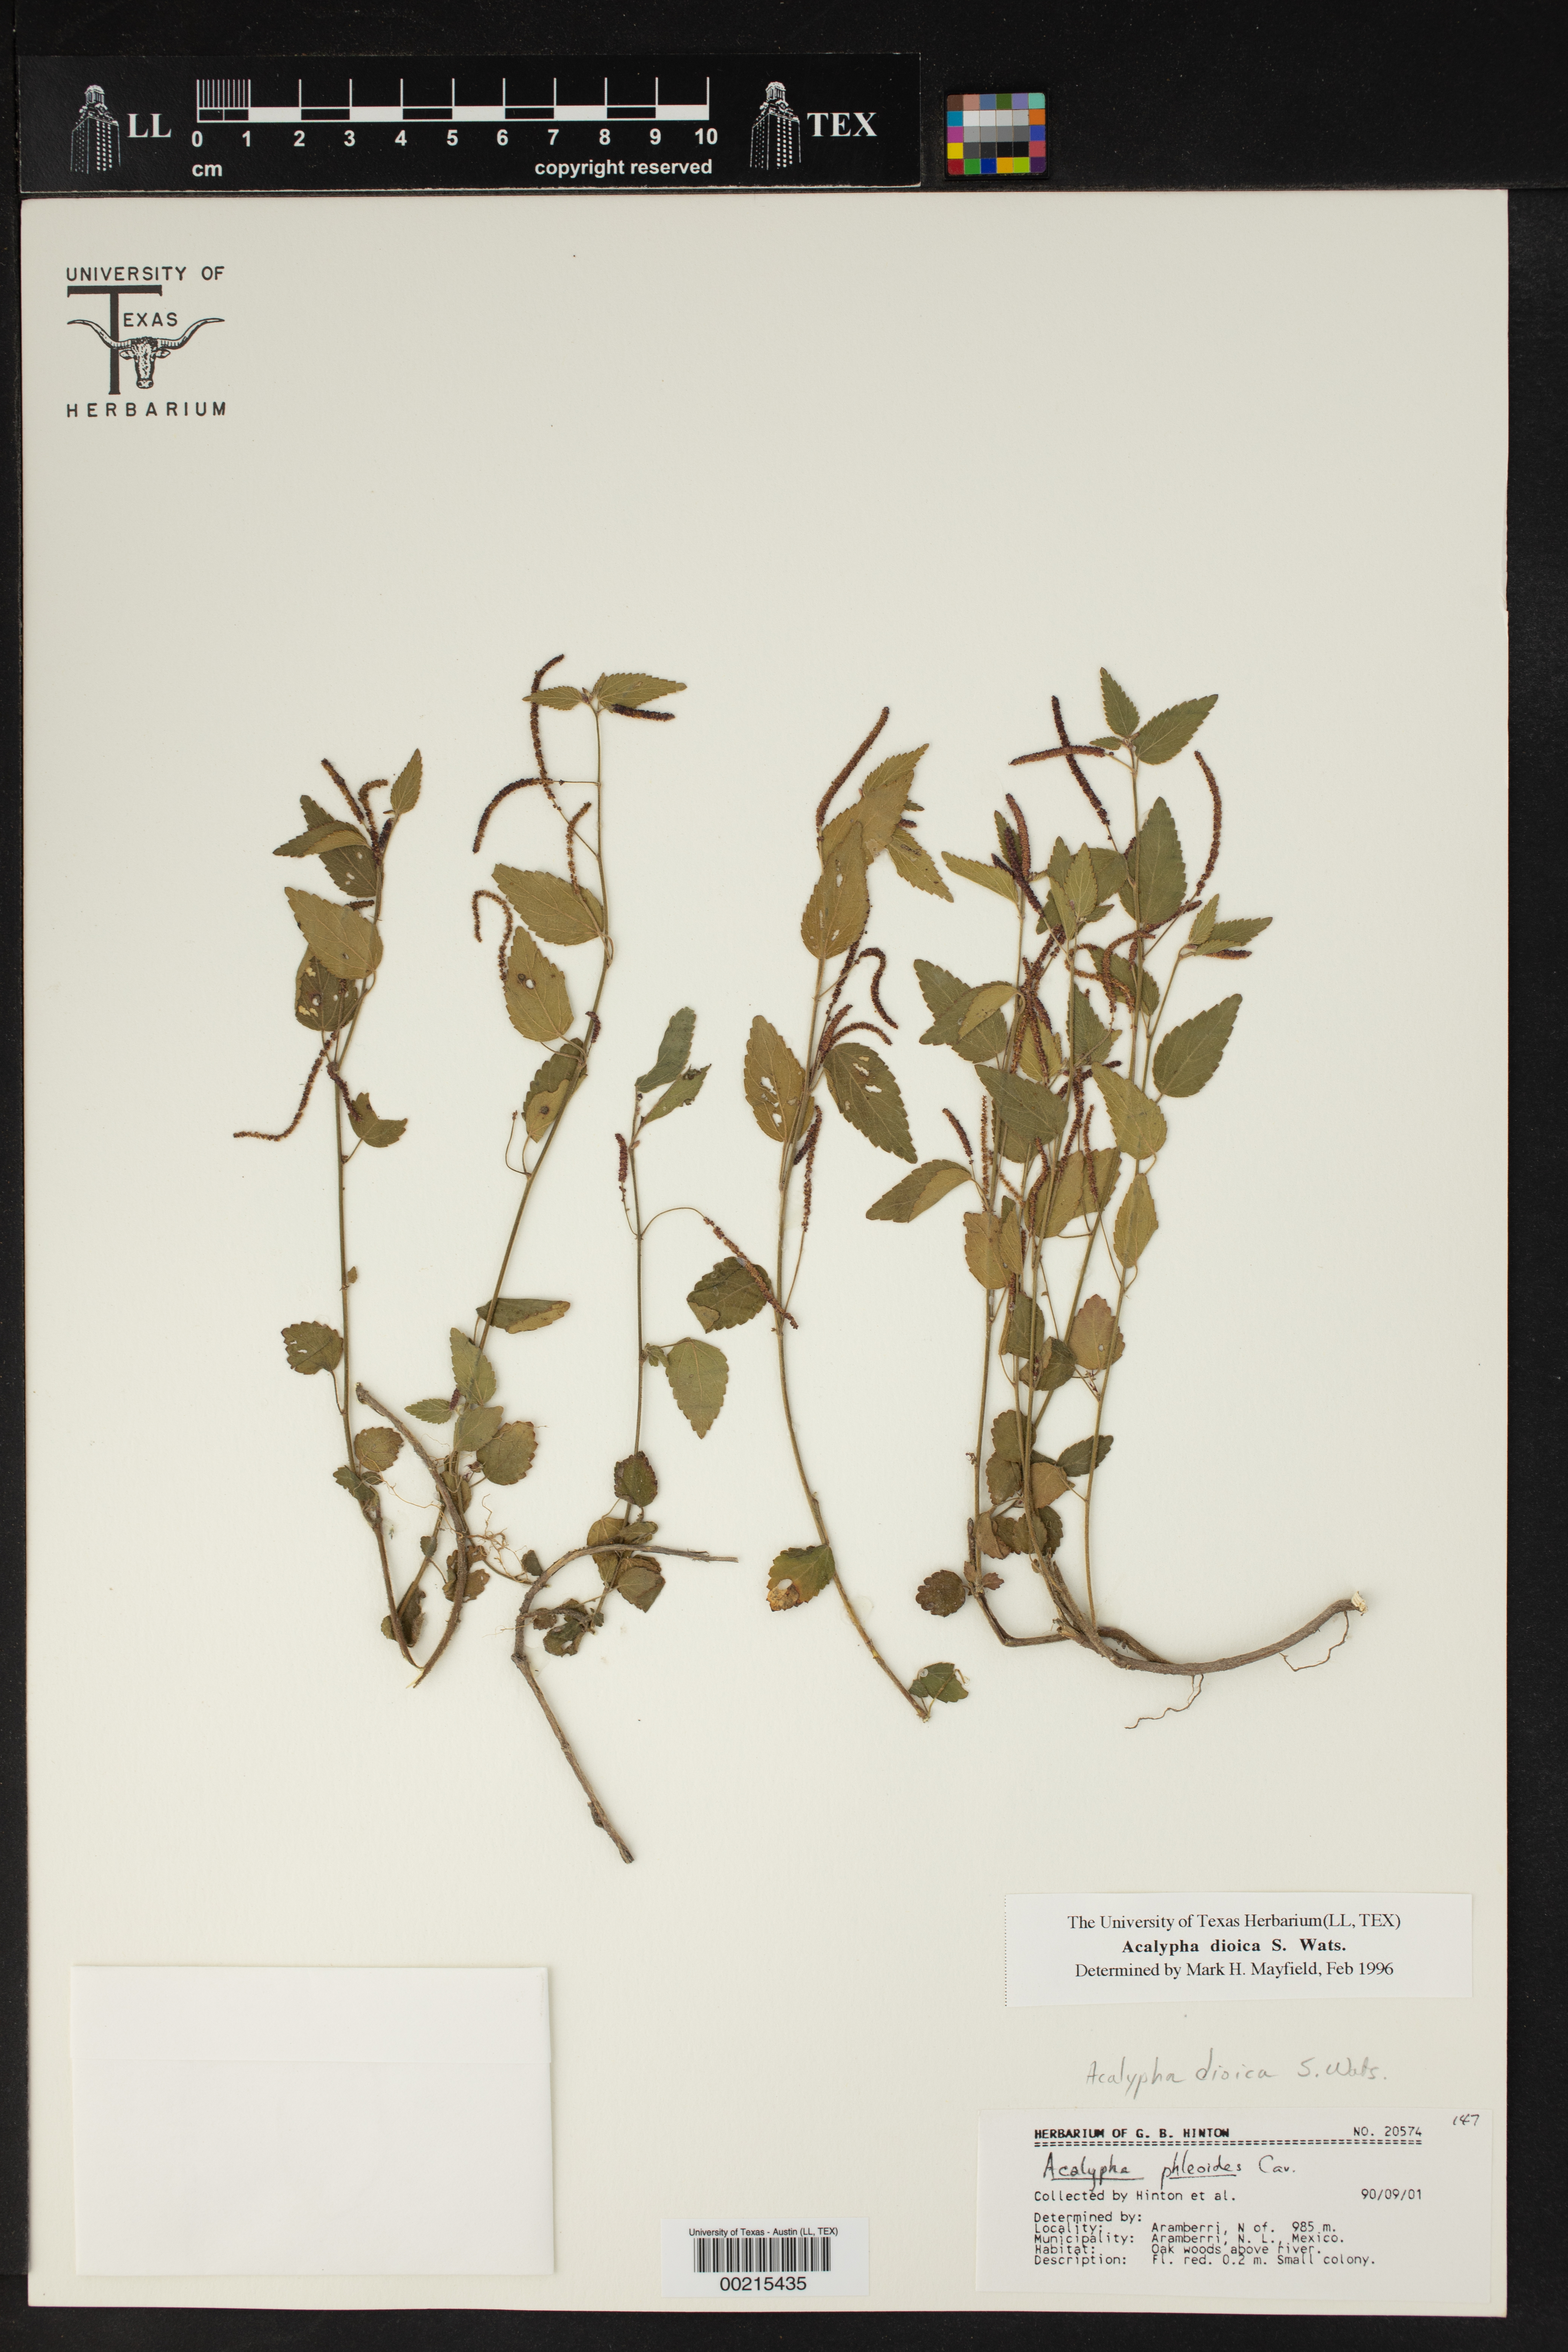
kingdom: Plantae
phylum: Tracheophyta
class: Magnoliopsida
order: Malpighiales
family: Euphorbiaceae
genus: Acalypha
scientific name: Acalypha dioica
